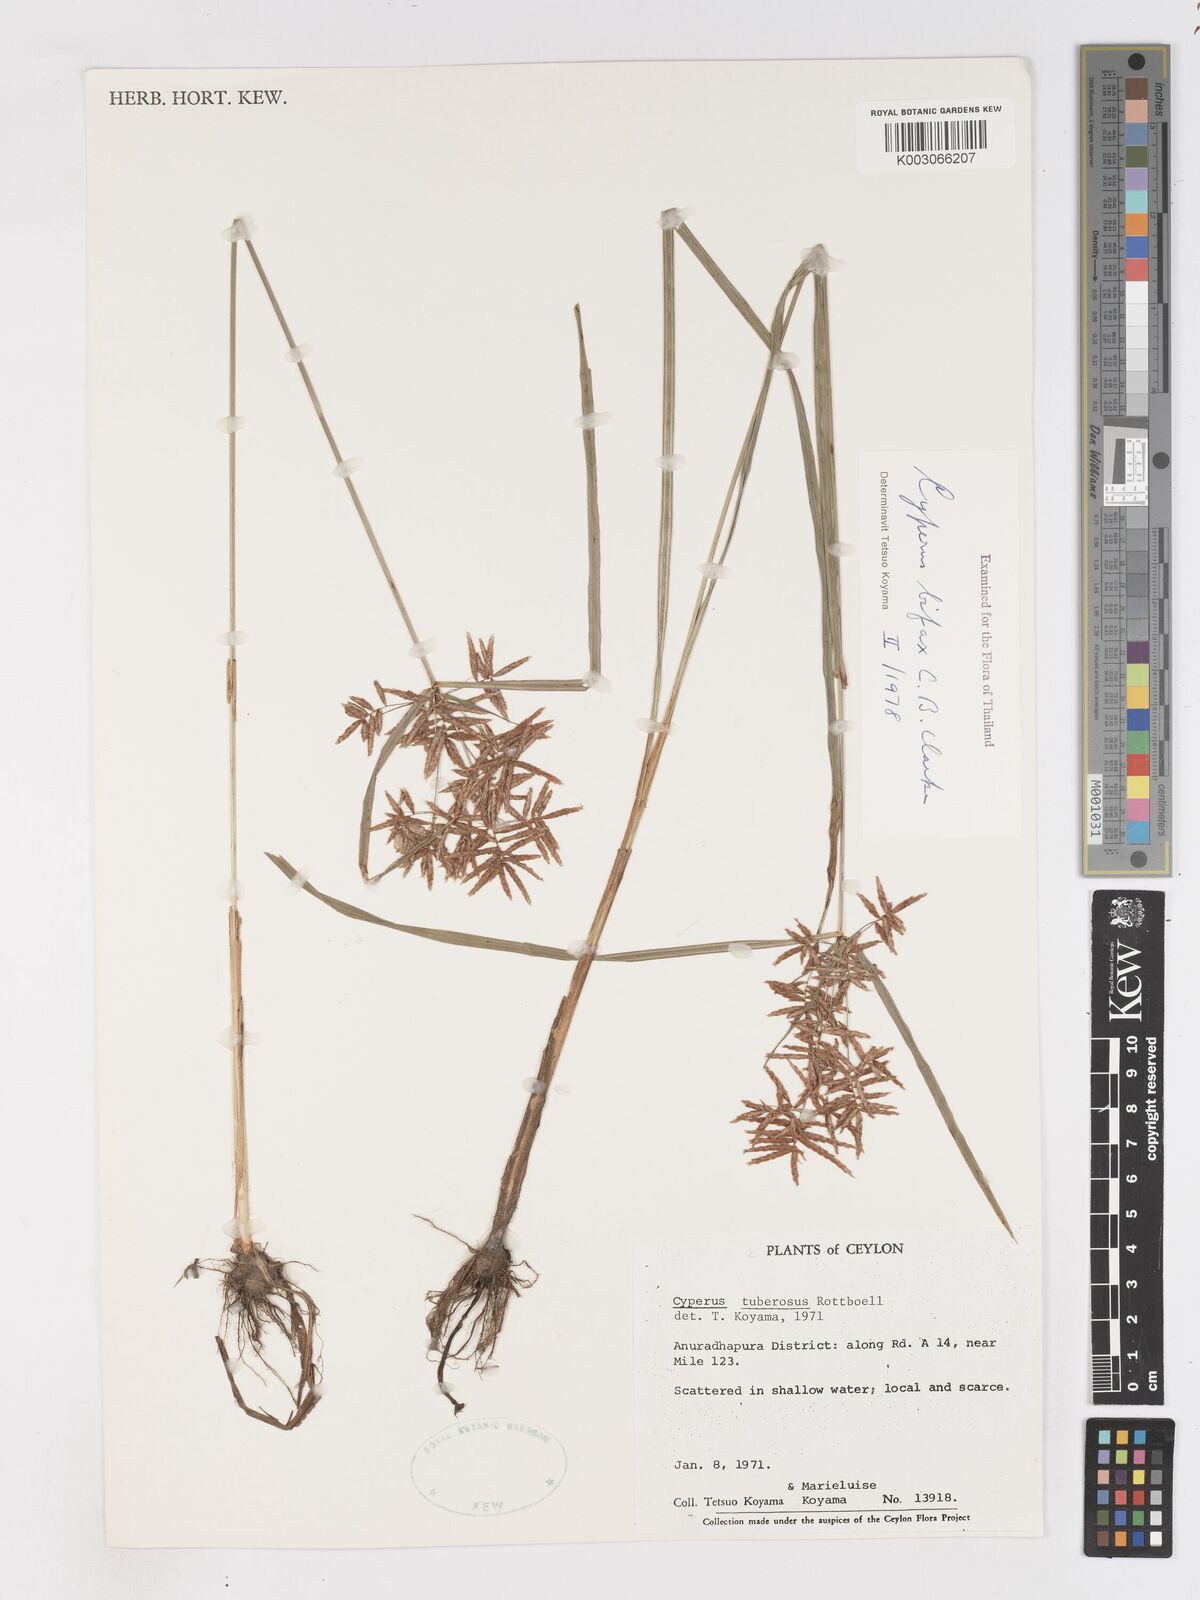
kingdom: Plantae
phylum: Tracheophyta
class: Liliopsida
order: Poales
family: Cyperaceae
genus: Cyperus
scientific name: Cyperus bifax
